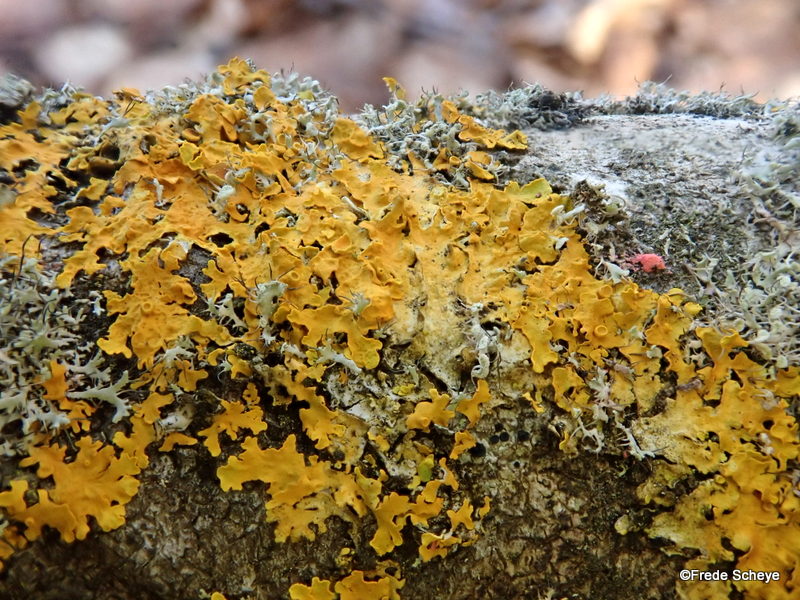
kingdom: Fungi
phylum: Ascomycota
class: Lecanoromycetes
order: Teloschistales
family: Teloschistaceae
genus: Xanthoria
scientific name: Xanthoria parietina
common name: almindelig væggelav
